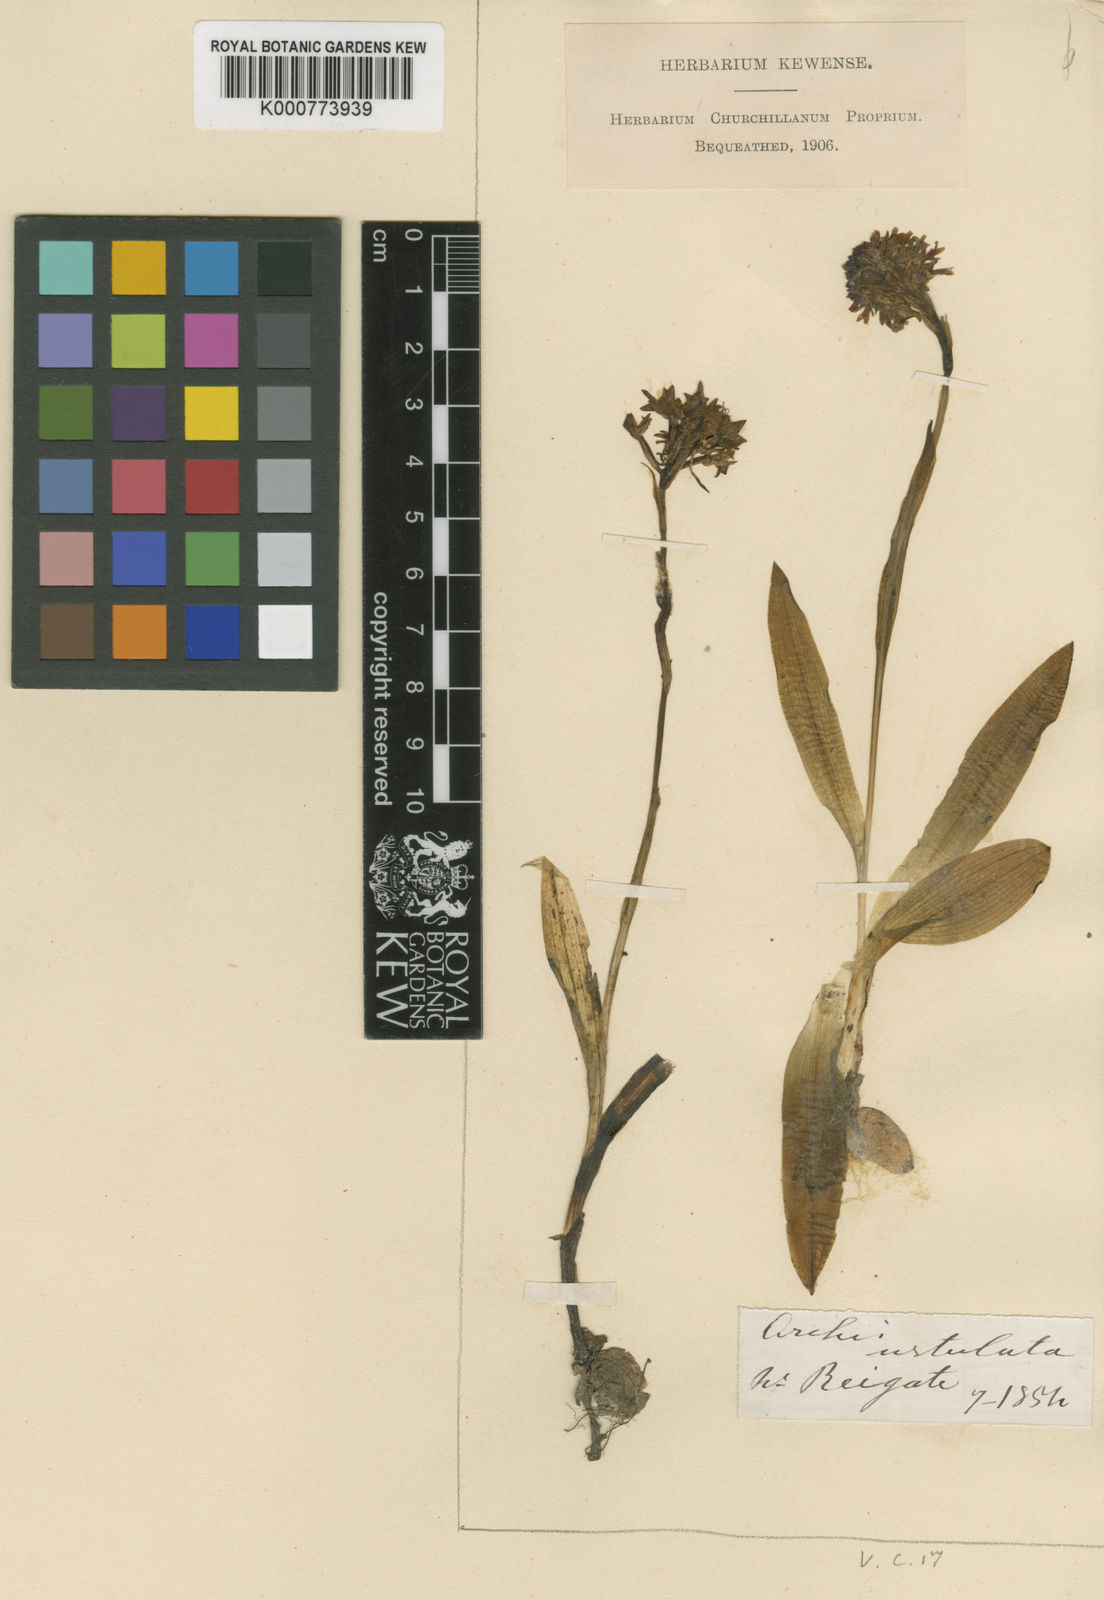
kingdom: Plantae
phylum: Tracheophyta
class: Liliopsida
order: Asparagales
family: Orchidaceae
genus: Neotinea
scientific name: Neotinea ustulata
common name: Burnt orchid
